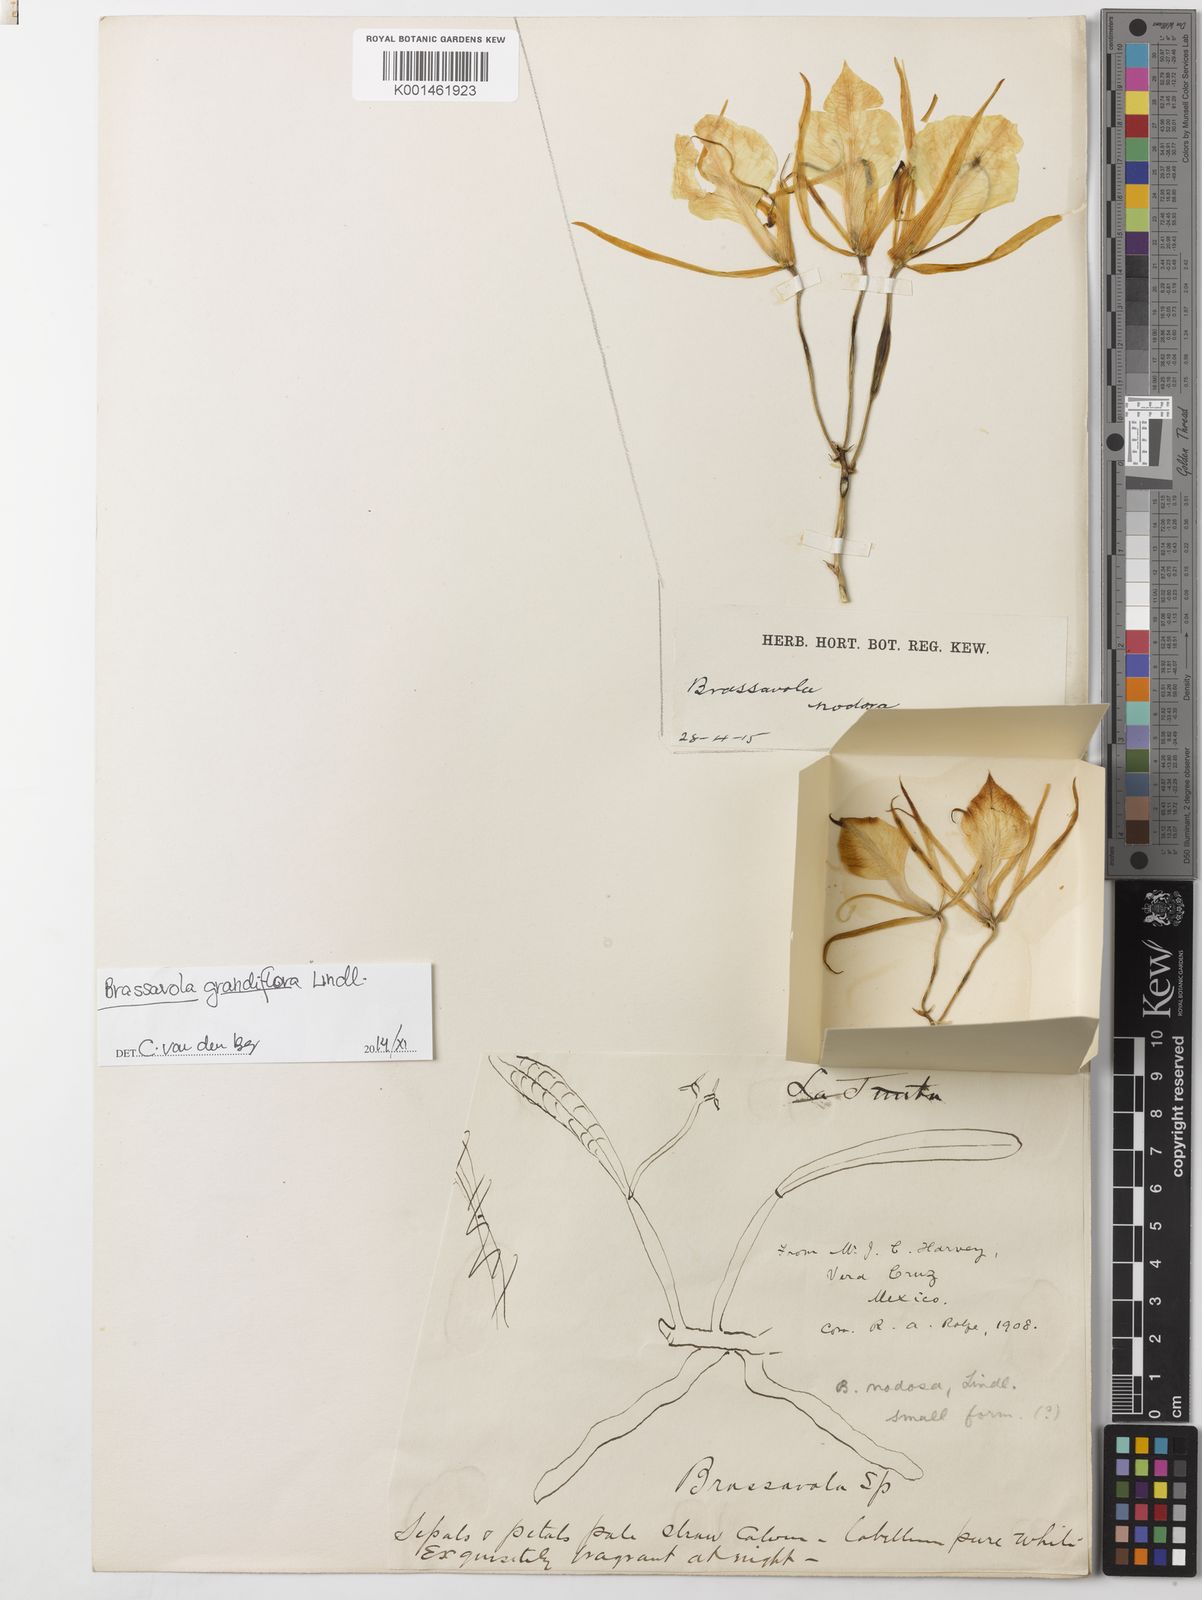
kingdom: Plantae
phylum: Tracheophyta
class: Liliopsida
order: Asparagales
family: Orchidaceae
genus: Brassavola
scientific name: Brassavola nodosa
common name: Lady of the night
